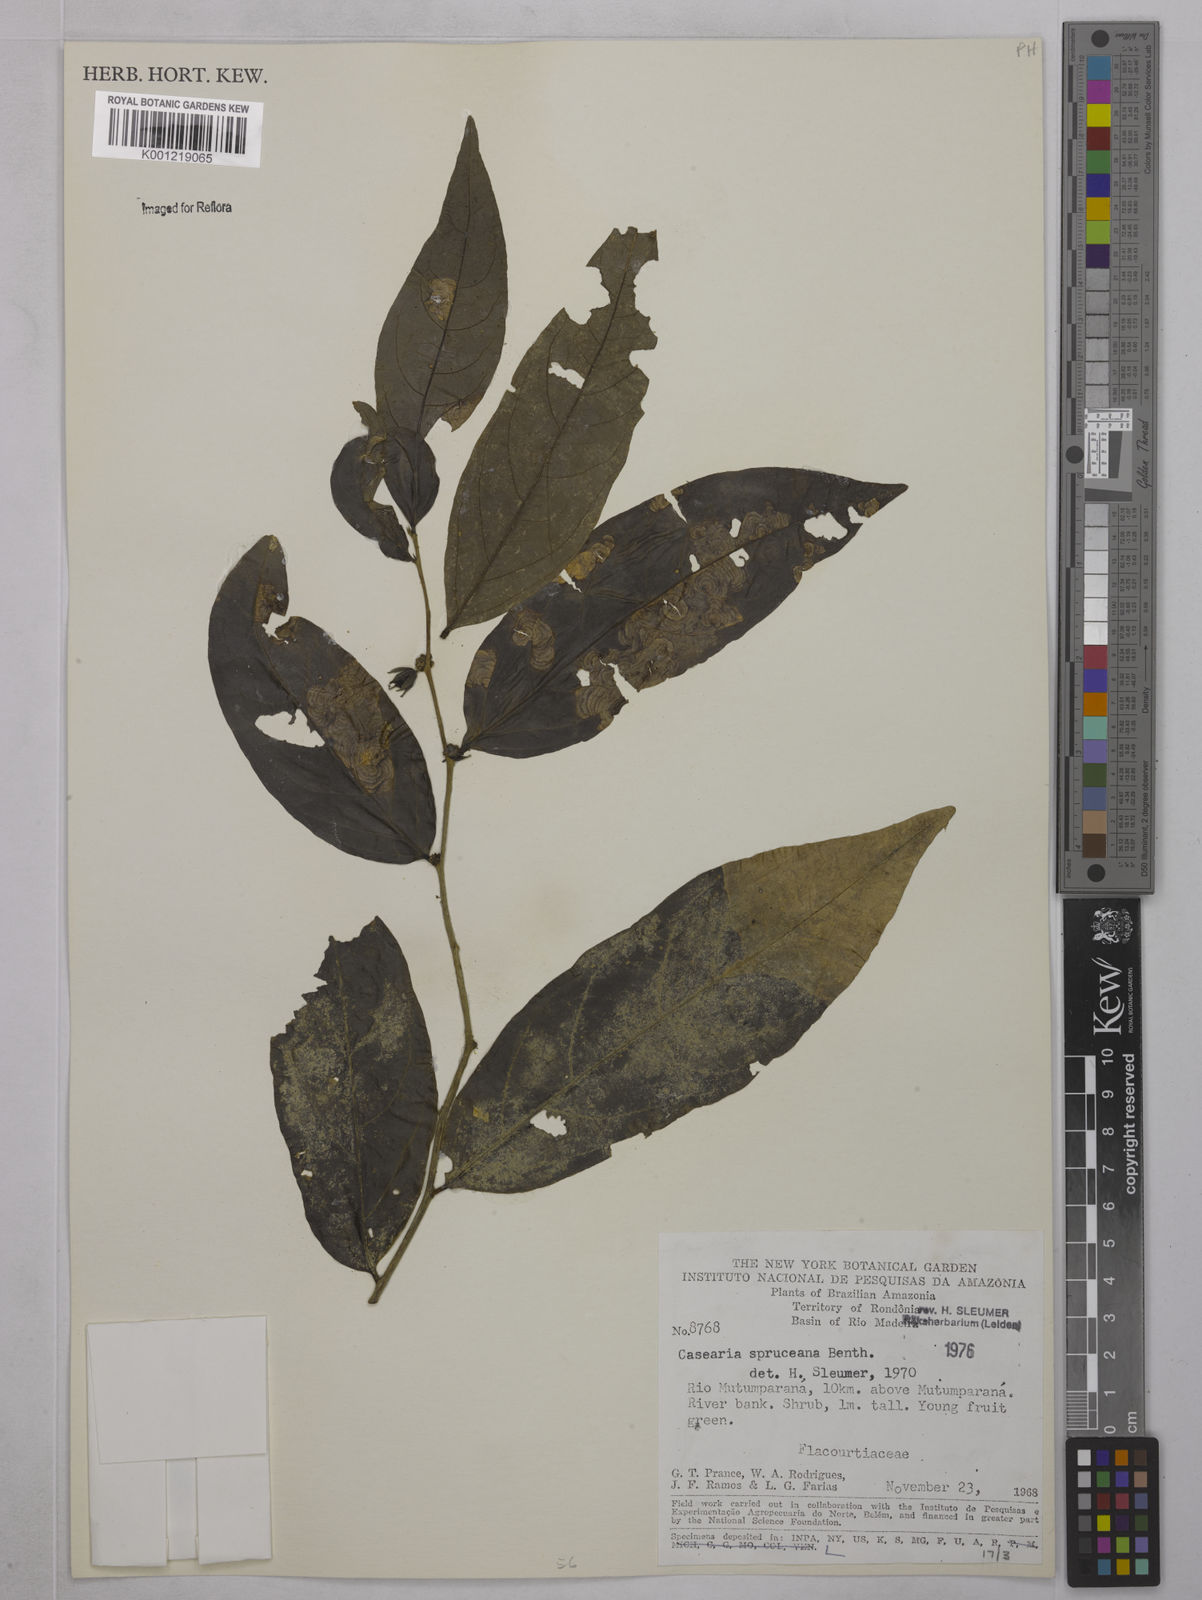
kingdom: Plantae
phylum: Tracheophyta
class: Magnoliopsida
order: Malpighiales
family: Salicaceae
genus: Piparea
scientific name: Piparea spruceana
